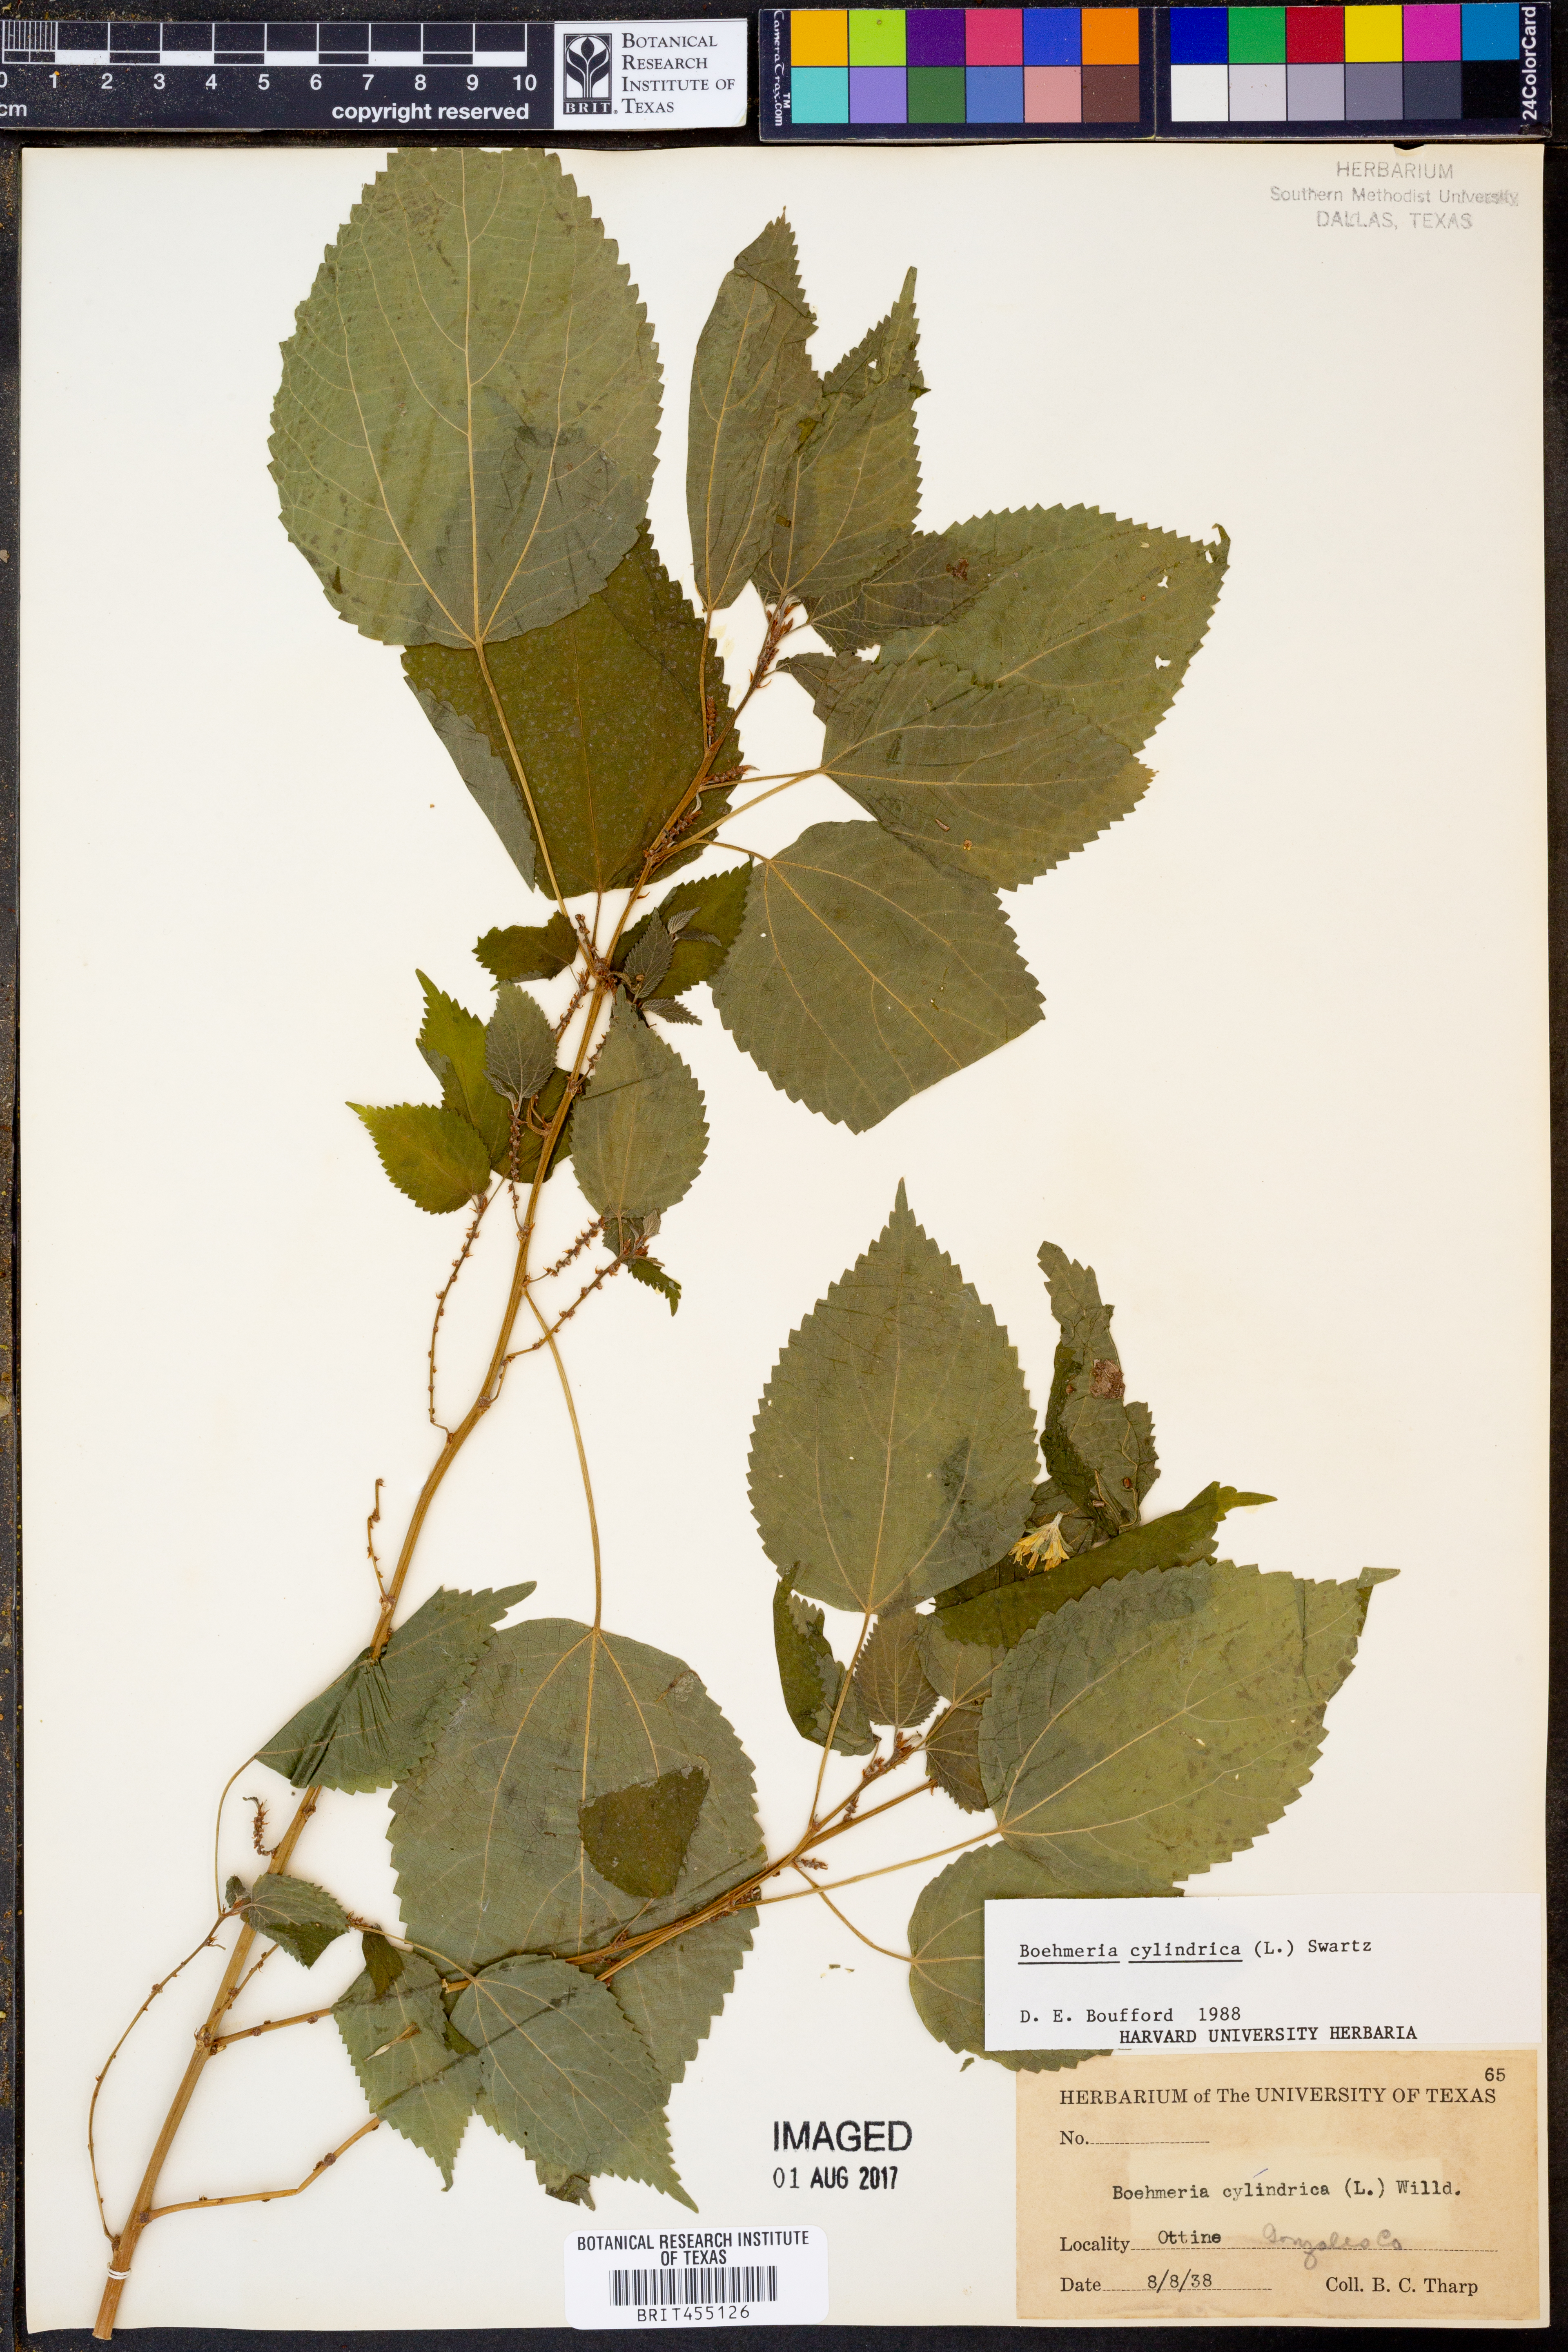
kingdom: Plantae
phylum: Tracheophyta
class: Magnoliopsida
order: Rosales
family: Urticaceae
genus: Boehmeria
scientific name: Boehmeria cylindrica
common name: Bog-hemp
